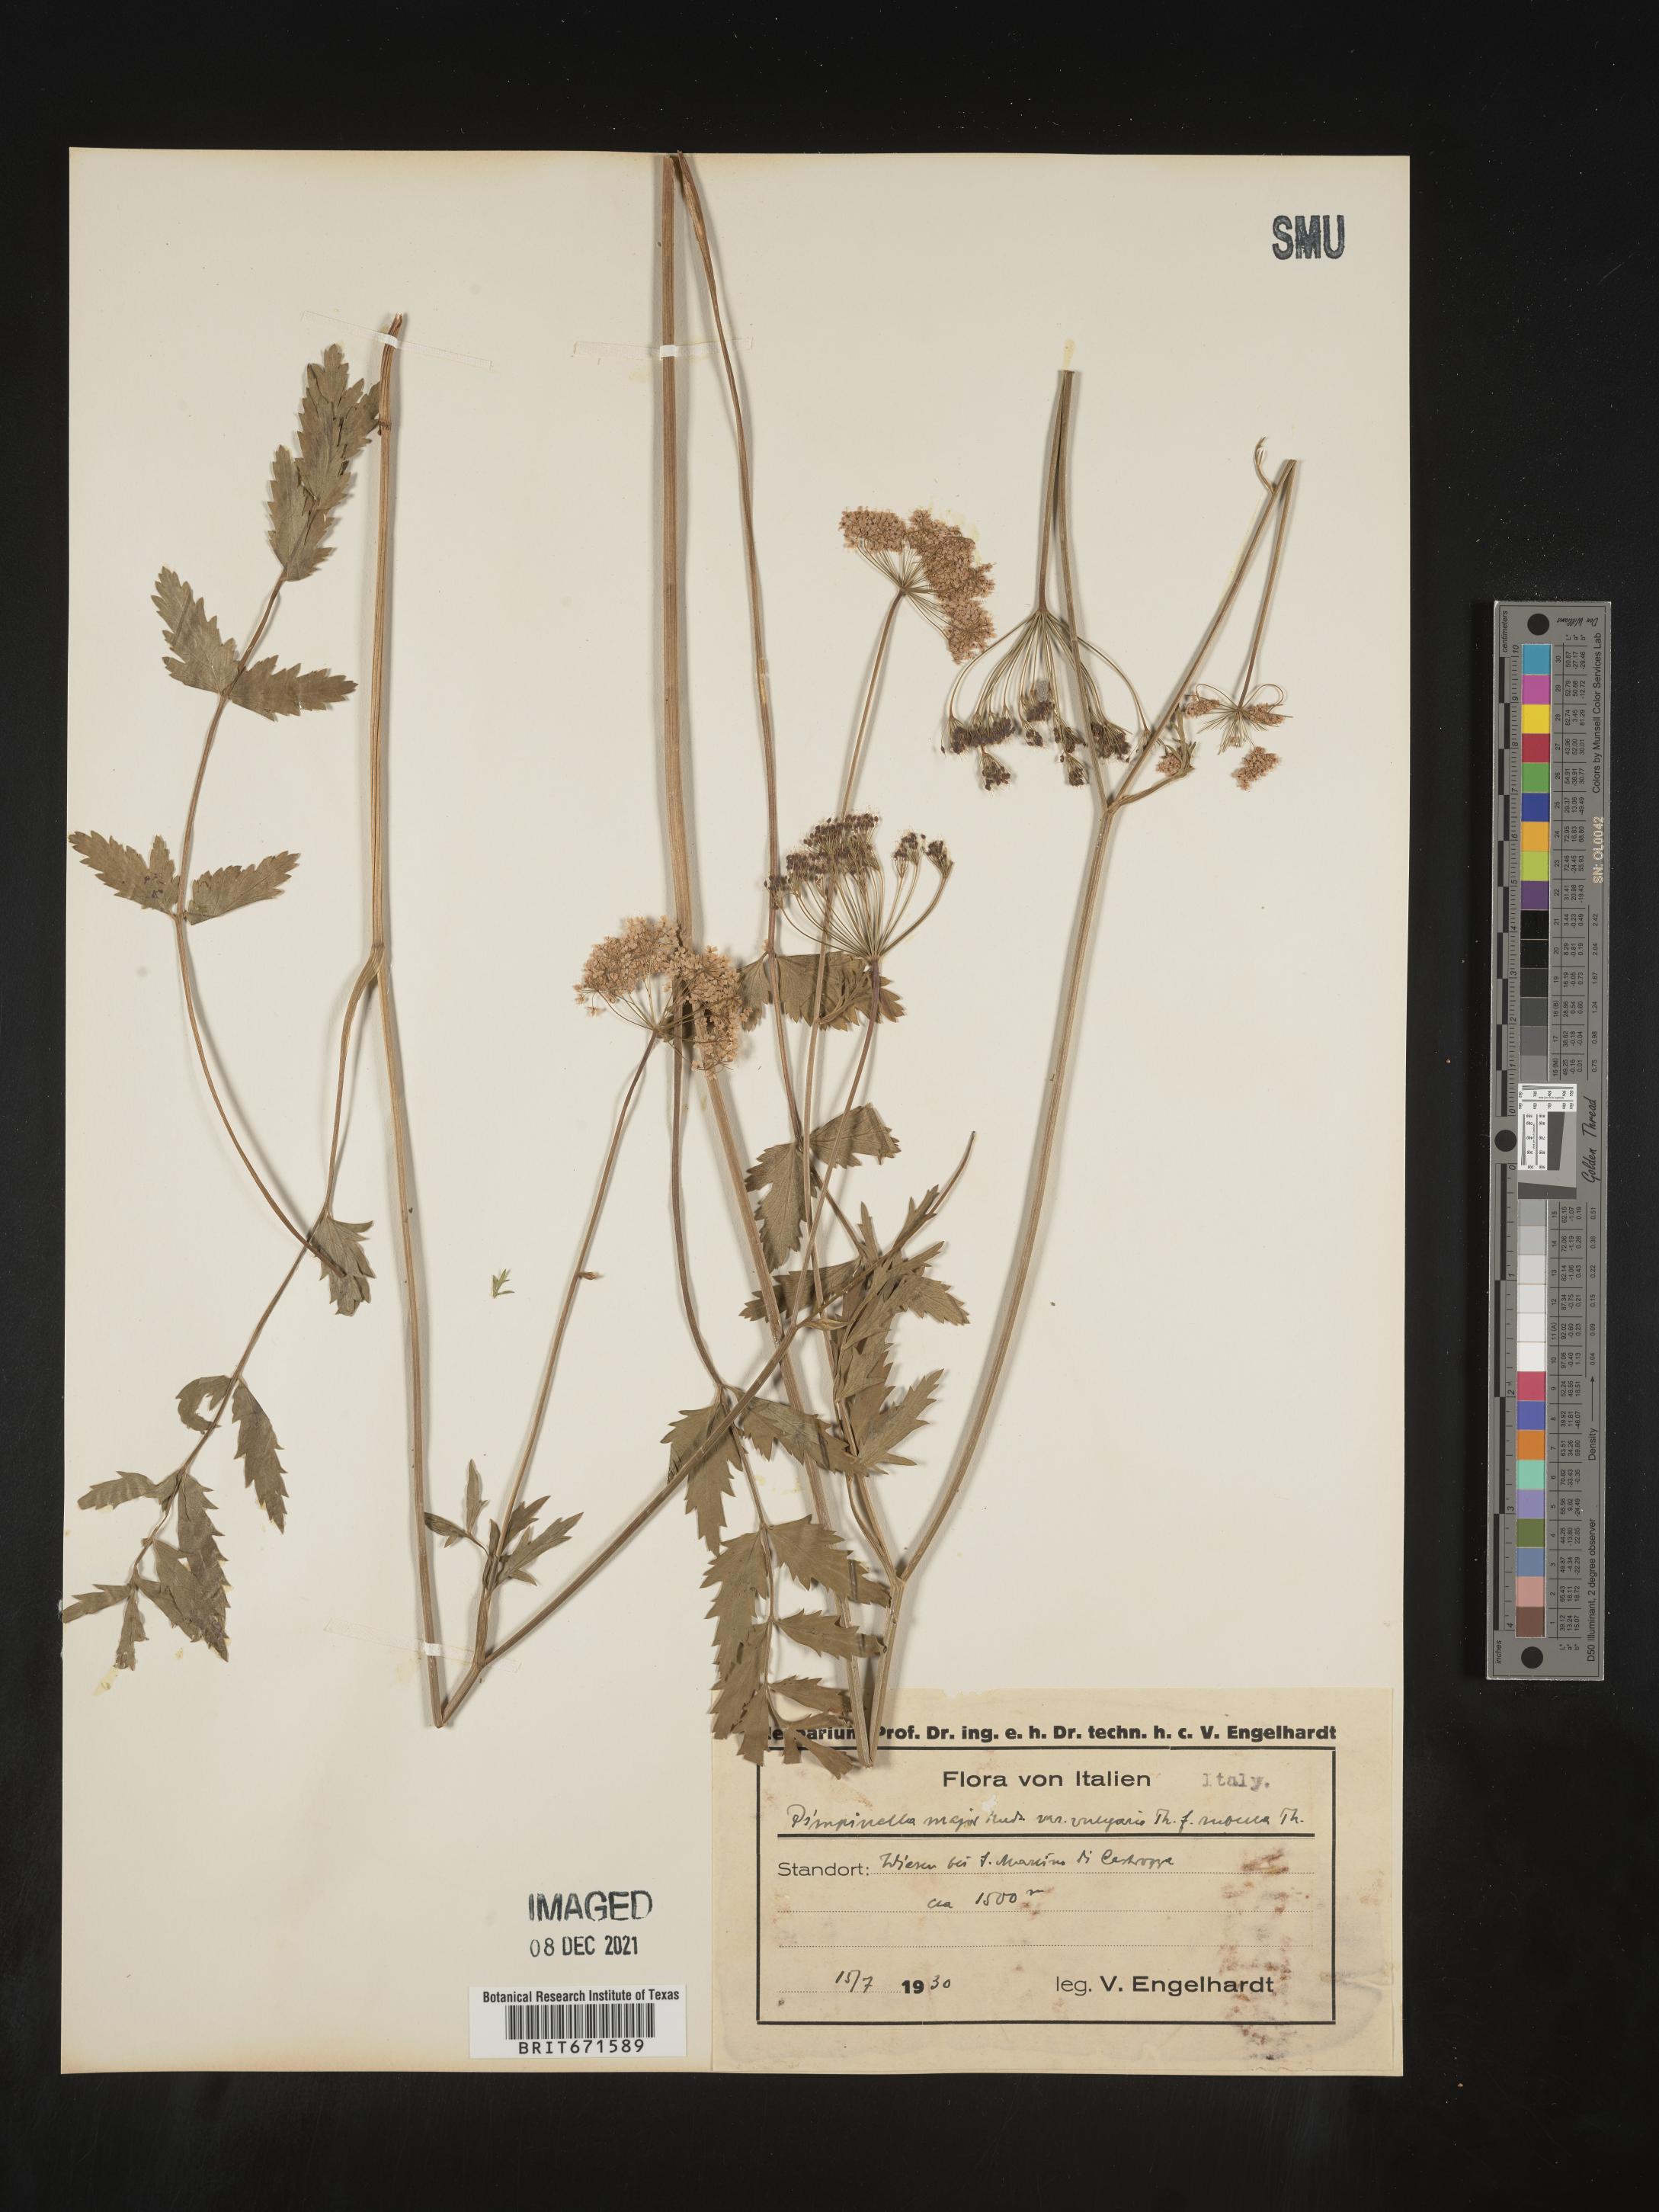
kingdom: Plantae
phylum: Tracheophyta
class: Magnoliopsida
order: Apiales
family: Apiaceae
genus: Pimpinella
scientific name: Pimpinella major
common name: Greater burnet-saxifrage
